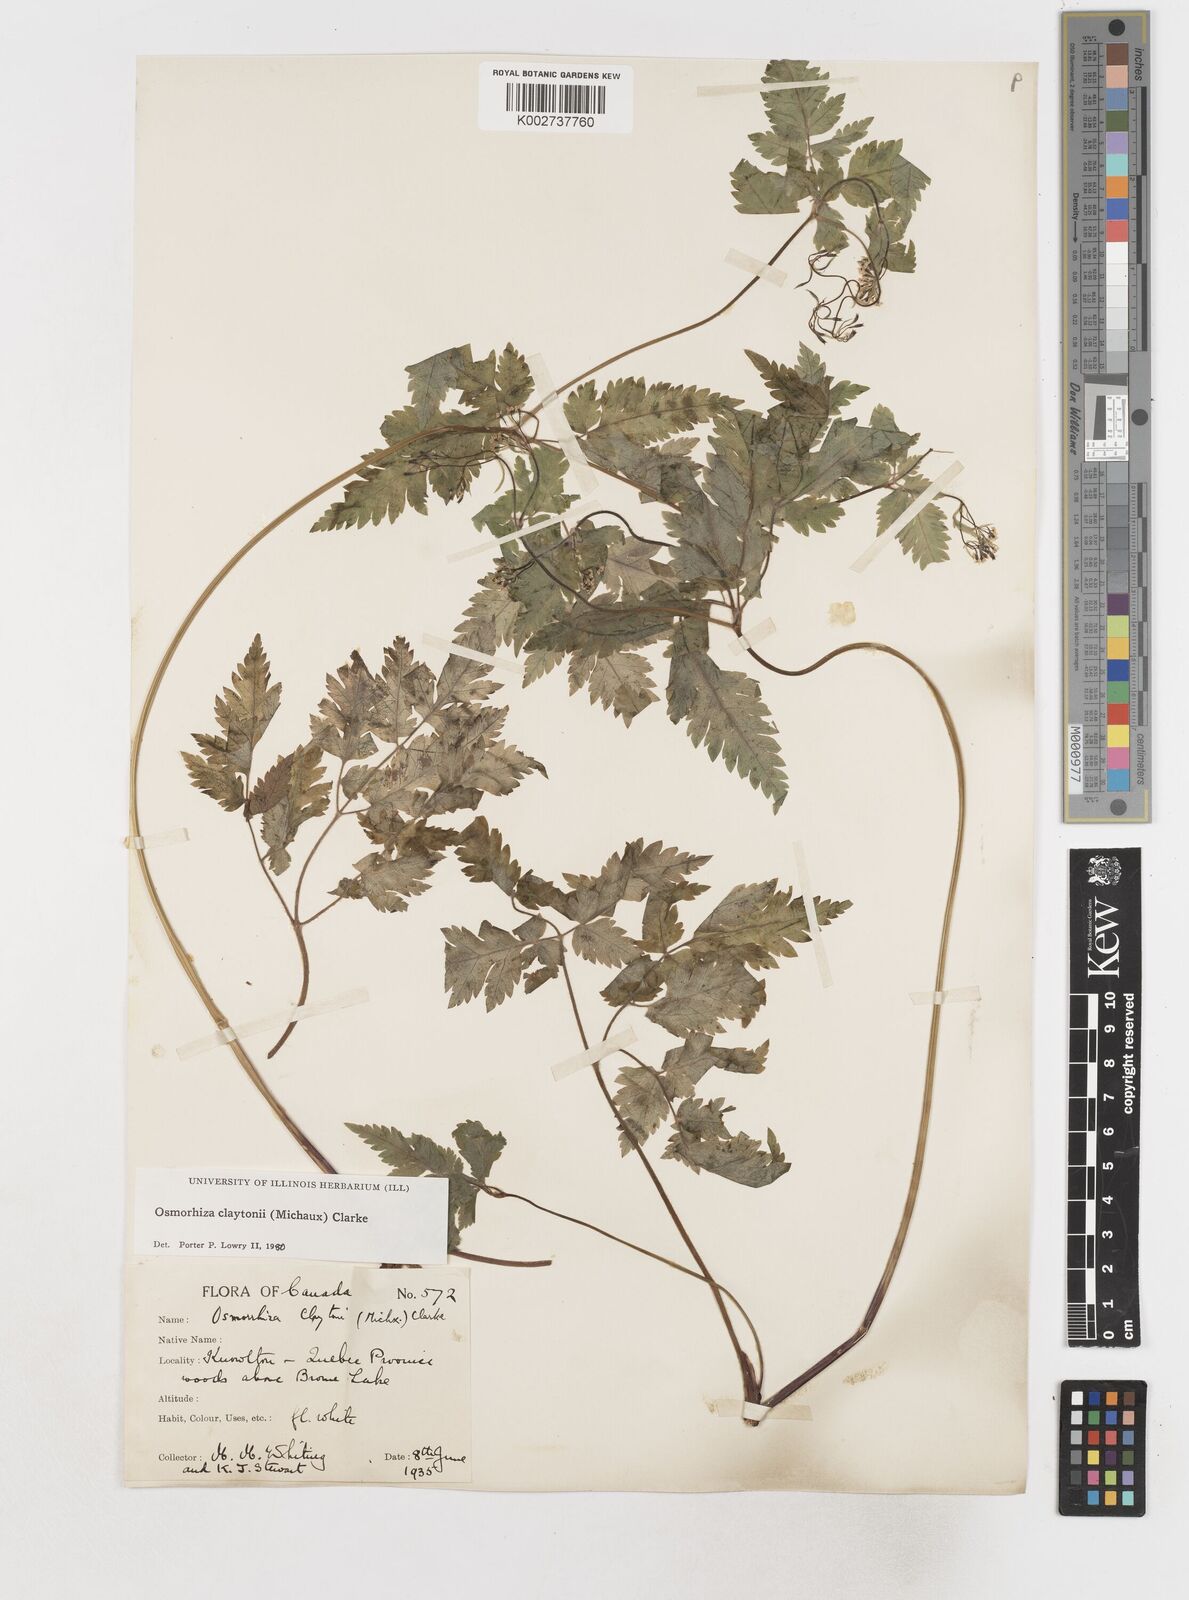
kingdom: Plantae
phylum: Tracheophyta
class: Magnoliopsida
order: Apiales
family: Apiaceae
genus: Osmorhiza
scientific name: Osmorhiza claytonii
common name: Hairy sweet cicely
